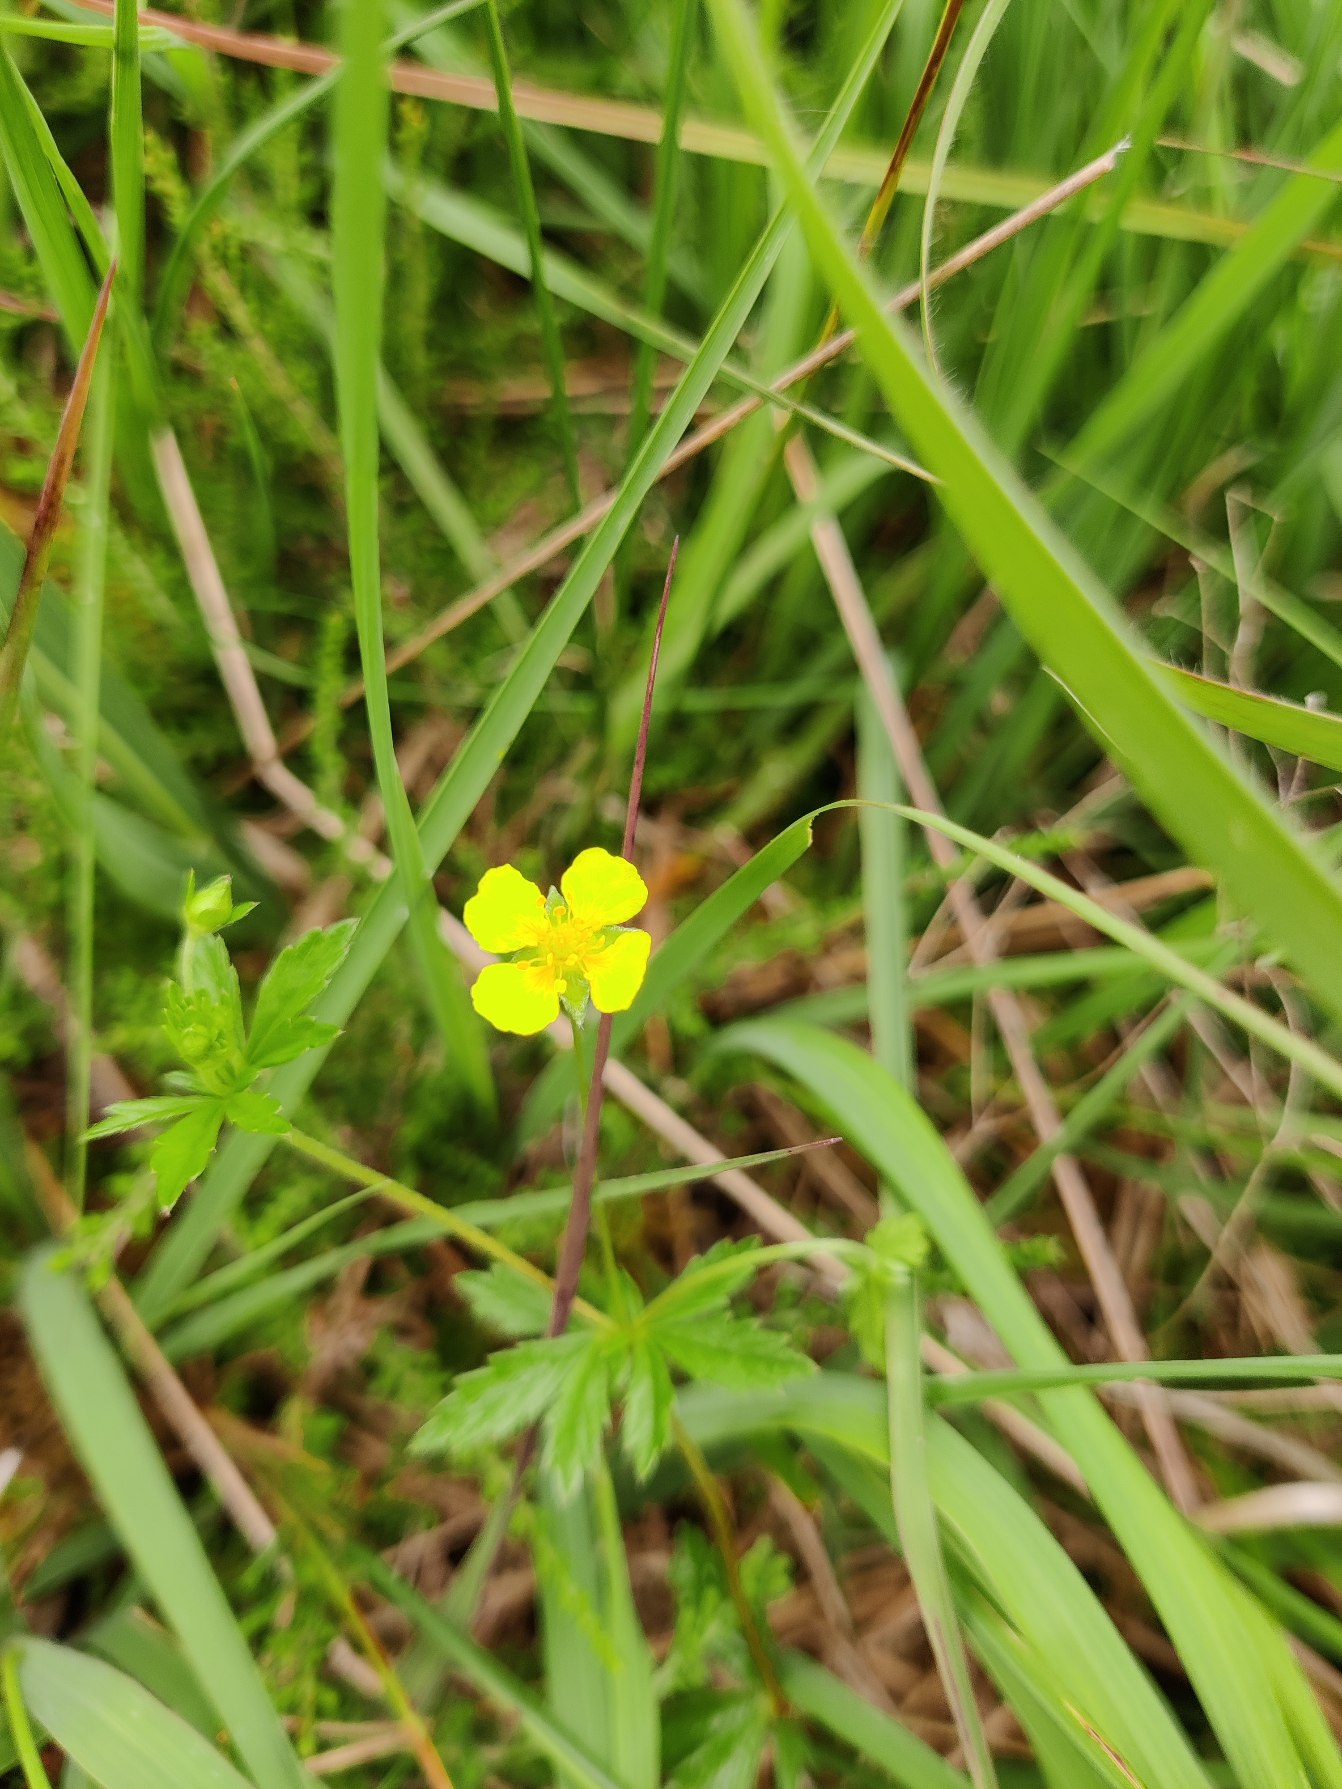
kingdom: Plantae
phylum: Tracheophyta
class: Magnoliopsida
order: Rosales
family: Rosaceae
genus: Potentilla
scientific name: Potentilla erecta
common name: Tormentil
